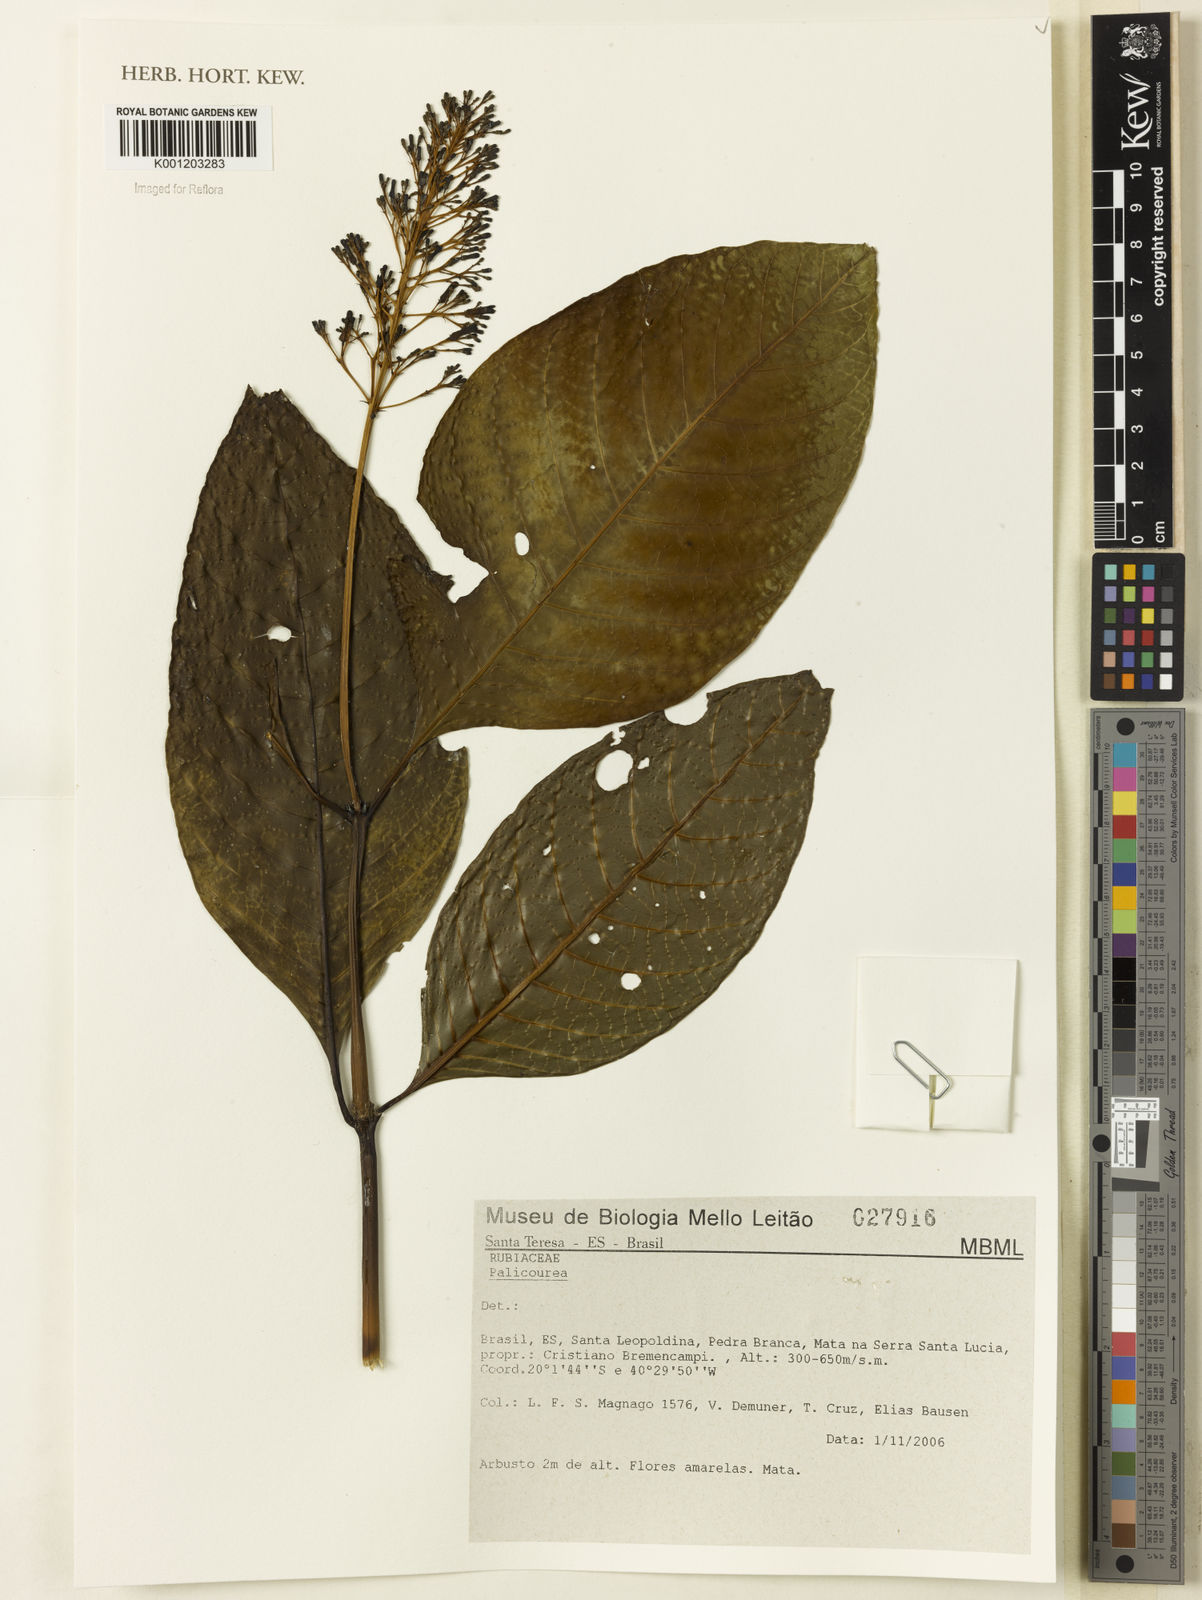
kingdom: Plantae
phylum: Tracheophyta
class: Magnoliopsida
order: Gentianales
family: Rubiaceae
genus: Palicourea
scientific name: Palicourea
